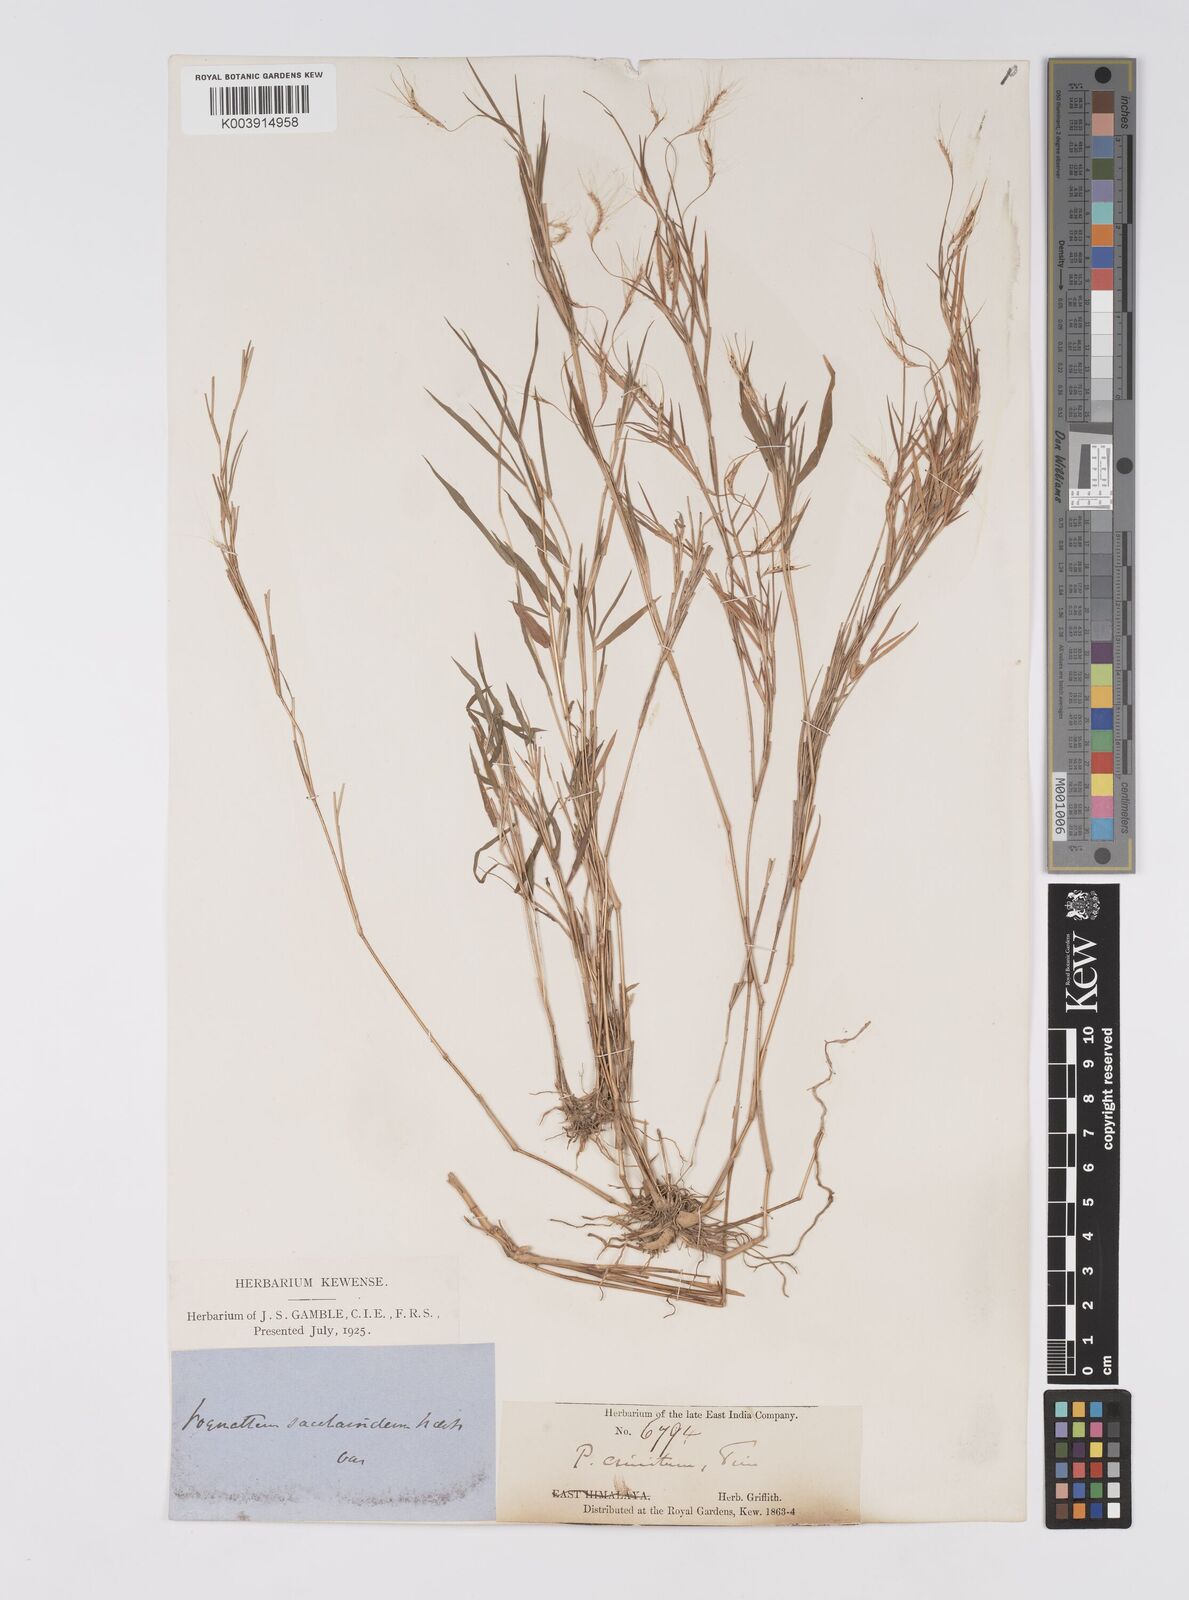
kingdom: Plantae
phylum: Tracheophyta
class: Liliopsida
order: Poales
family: Poaceae
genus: Pogonatherum
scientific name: Pogonatherum paniceum
